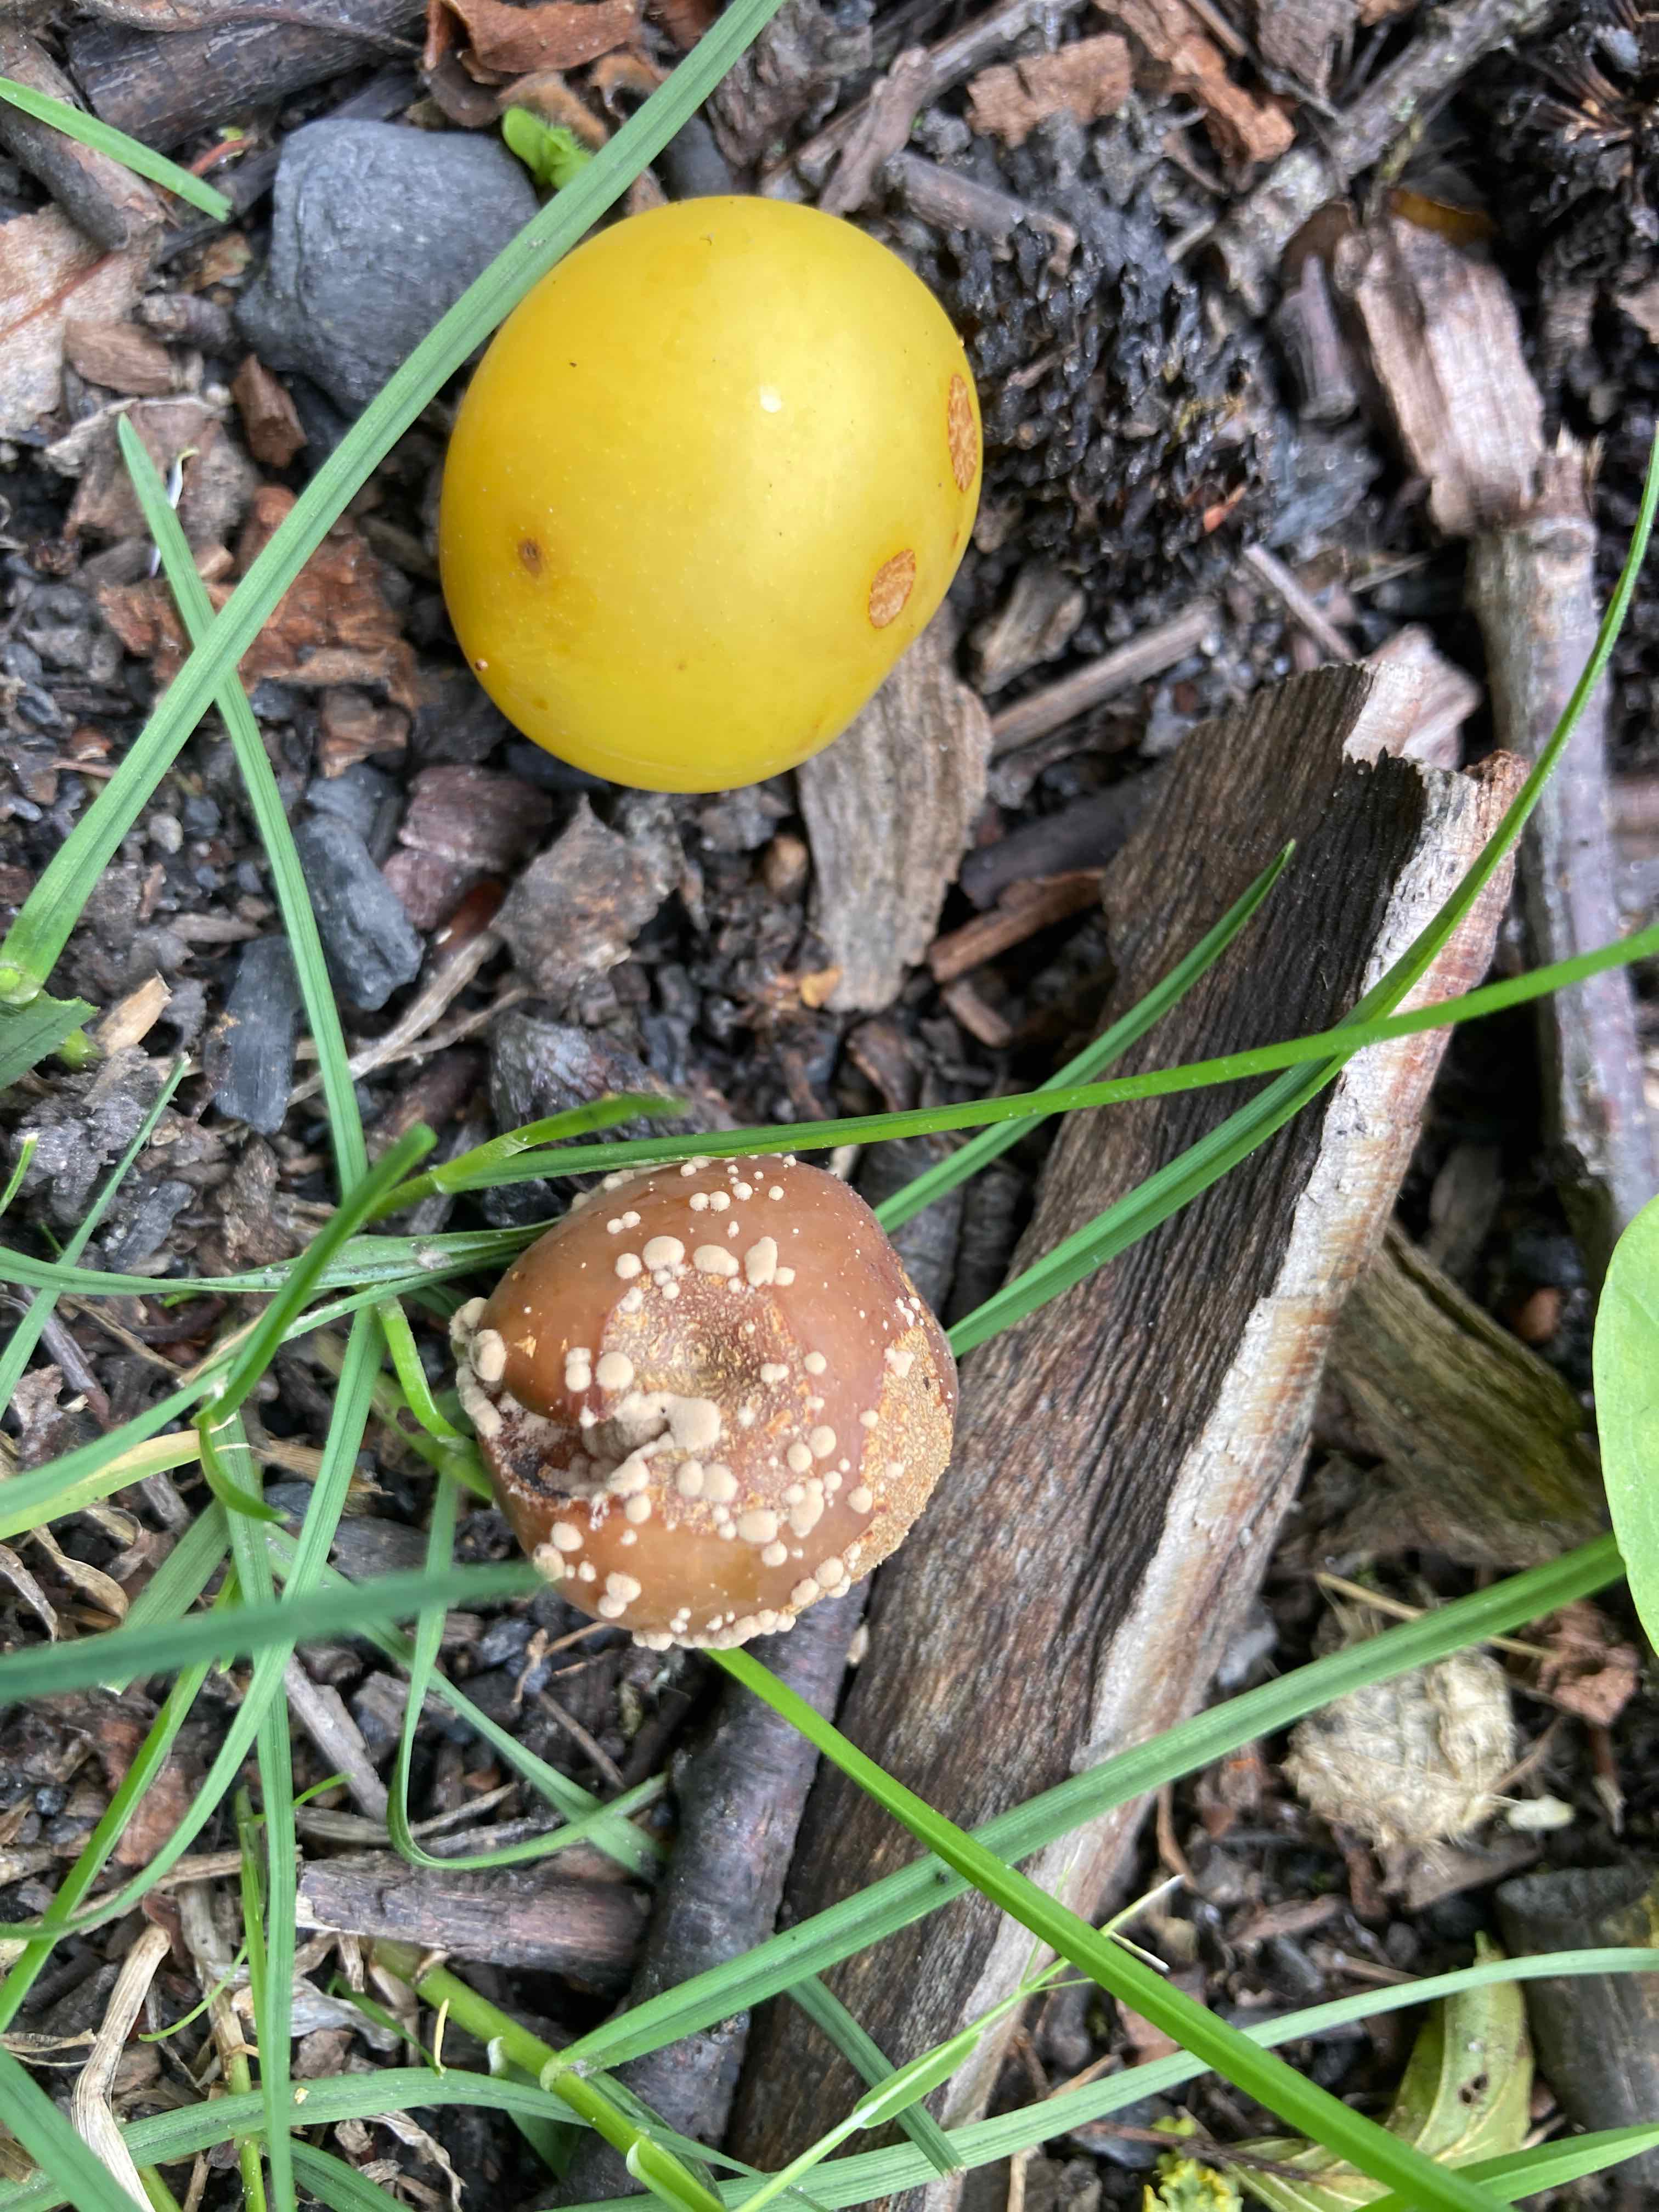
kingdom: Fungi
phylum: Ascomycota
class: Leotiomycetes
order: Helotiales
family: Sclerotiniaceae
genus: Monilinia
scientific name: Monilinia fructigena
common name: æble-knoldskive
